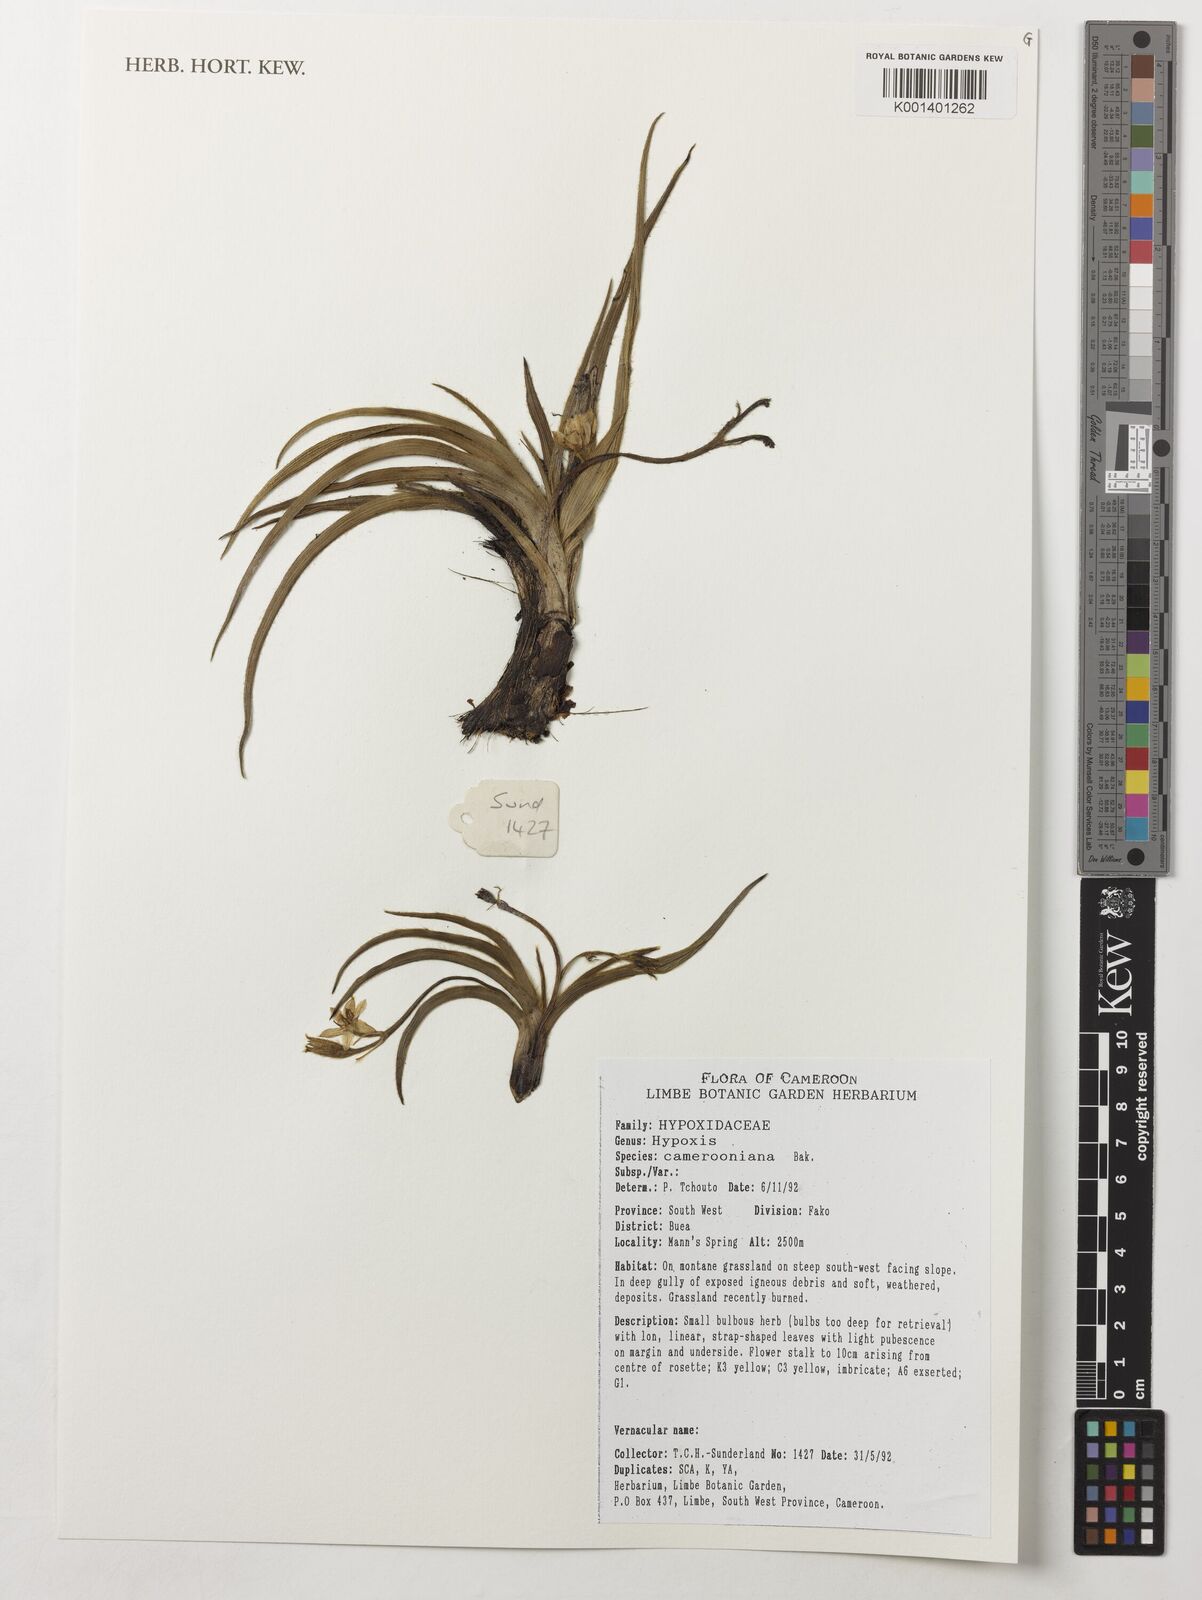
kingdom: Plantae
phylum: Tracheophyta
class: Liliopsida
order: Asparagales
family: Hypoxidaceae
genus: Hypoxis
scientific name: Hypoxis camerooniana
